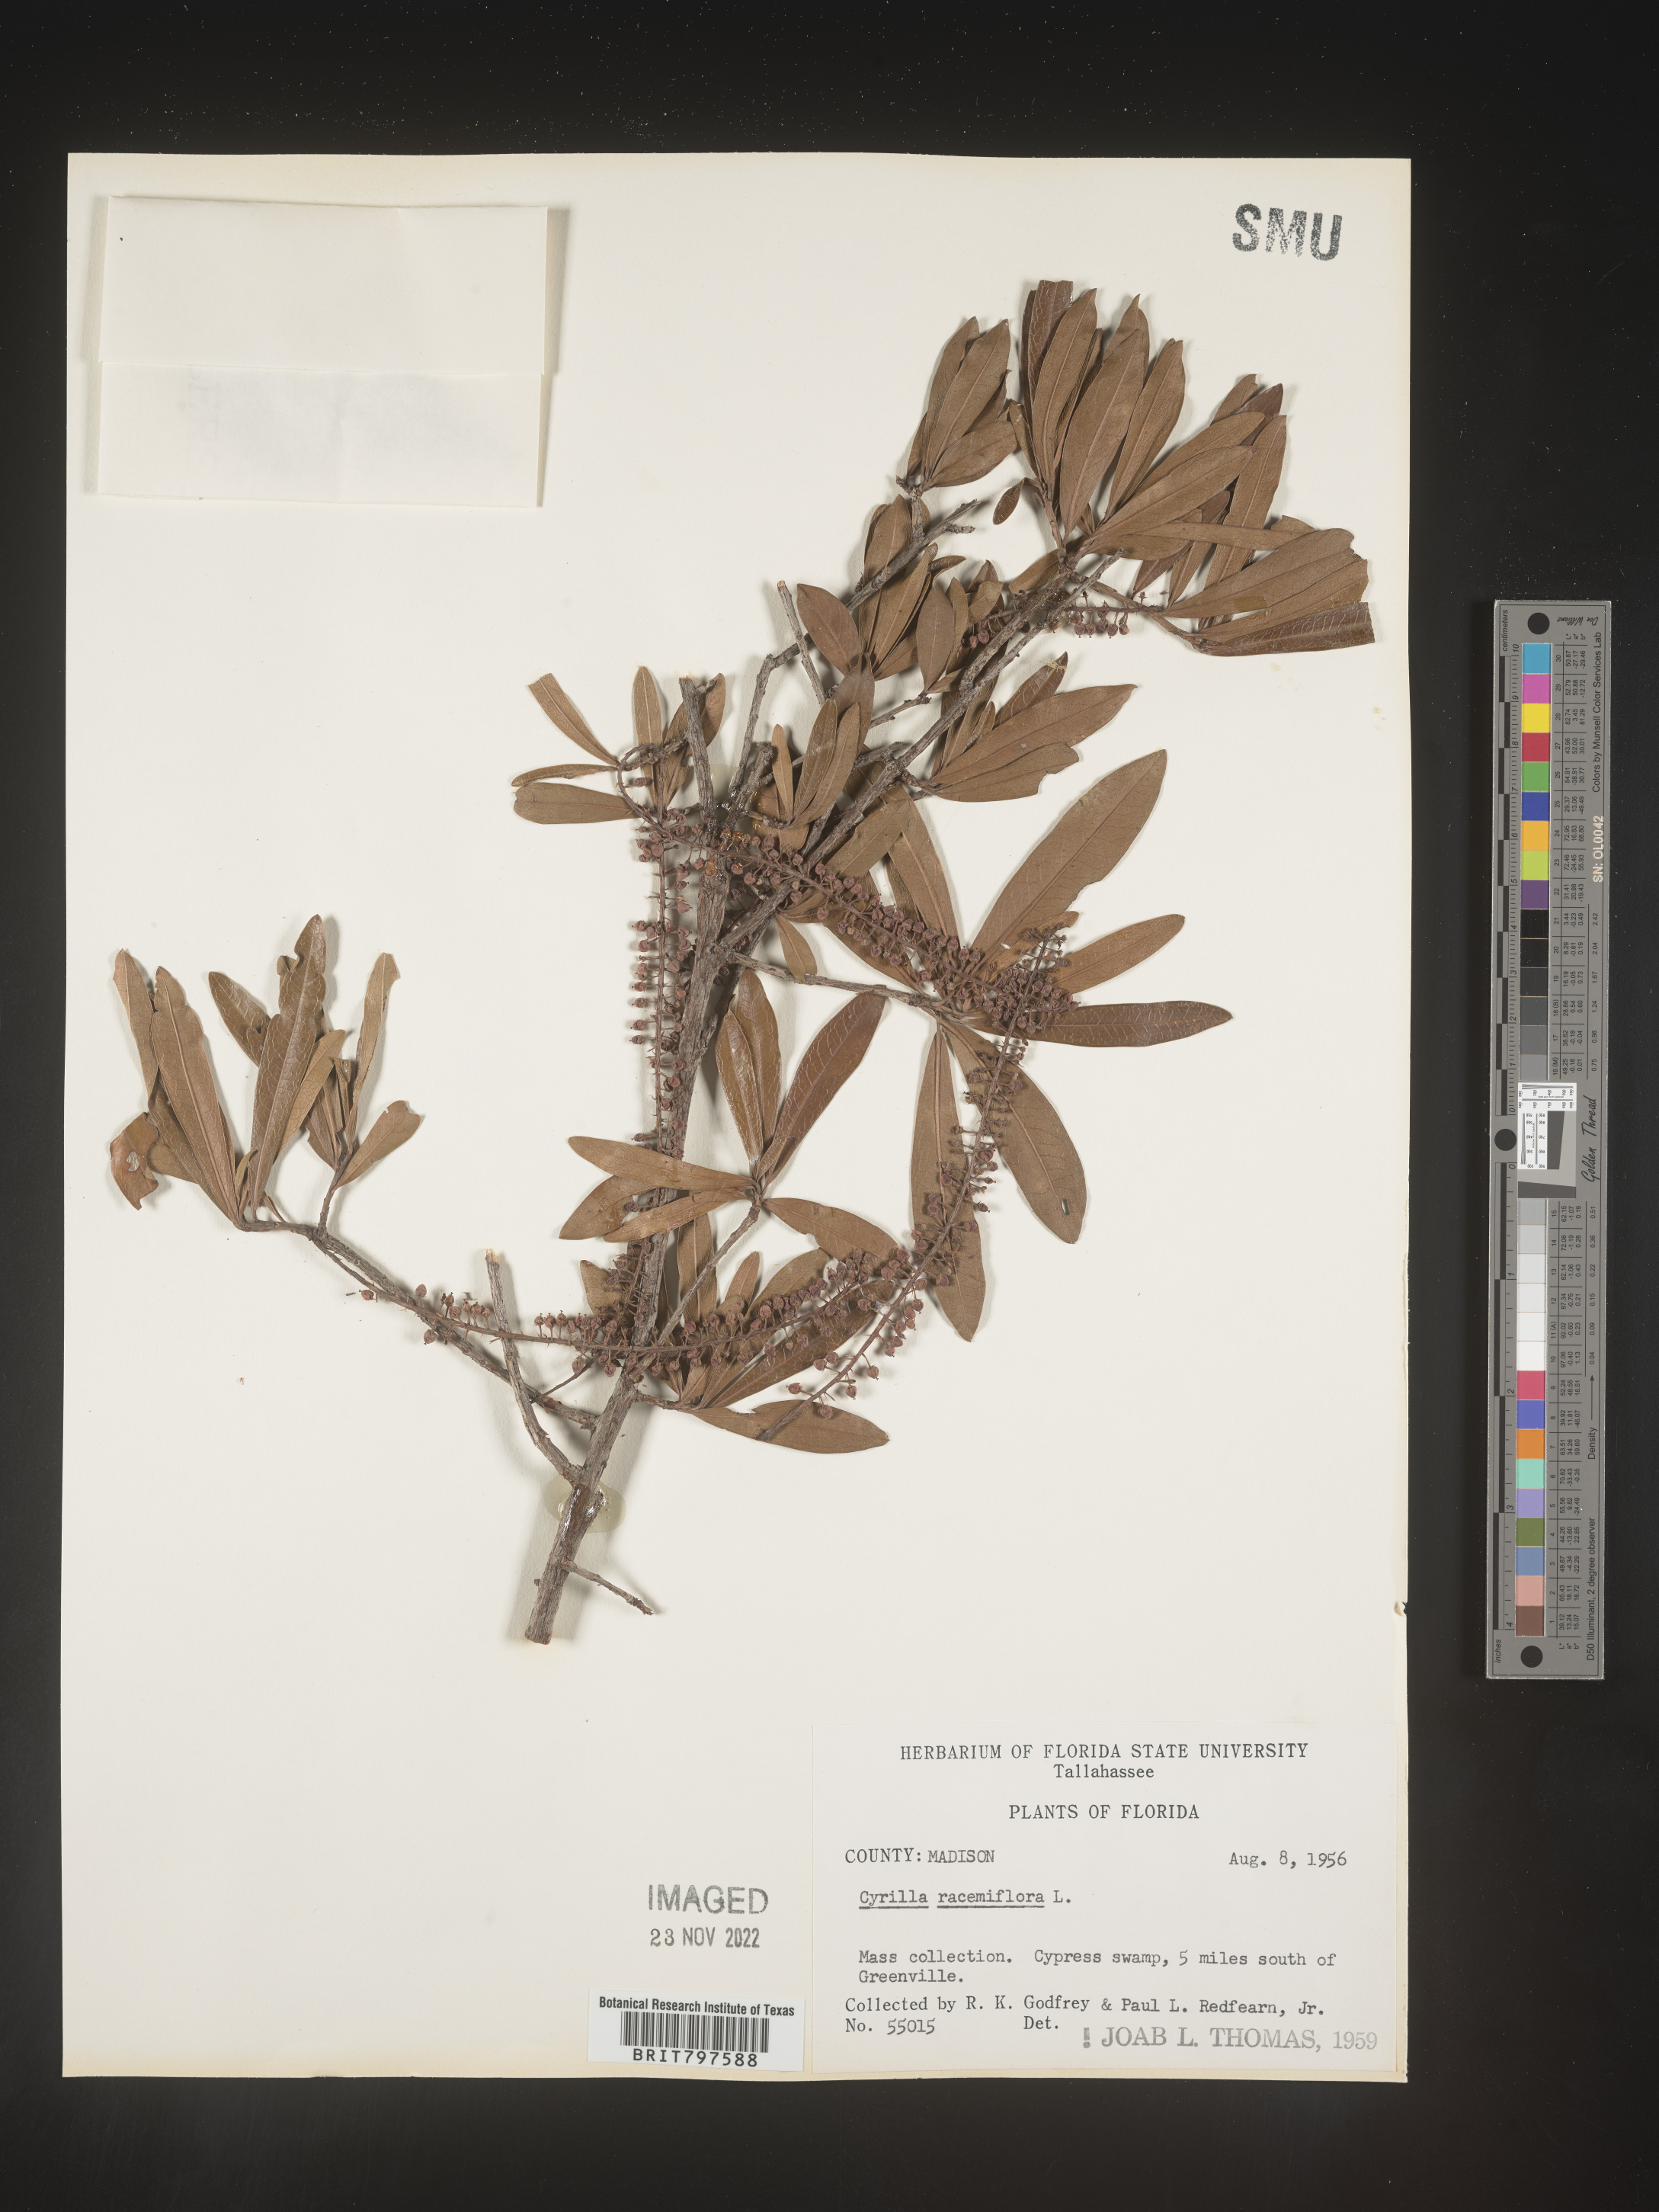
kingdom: Plantae
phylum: Tracheophyta
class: Magnoliopsida
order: Ericales
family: Cyrillaceae
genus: Cyrilla
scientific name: Cyrilla racemiflora
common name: Black titi
